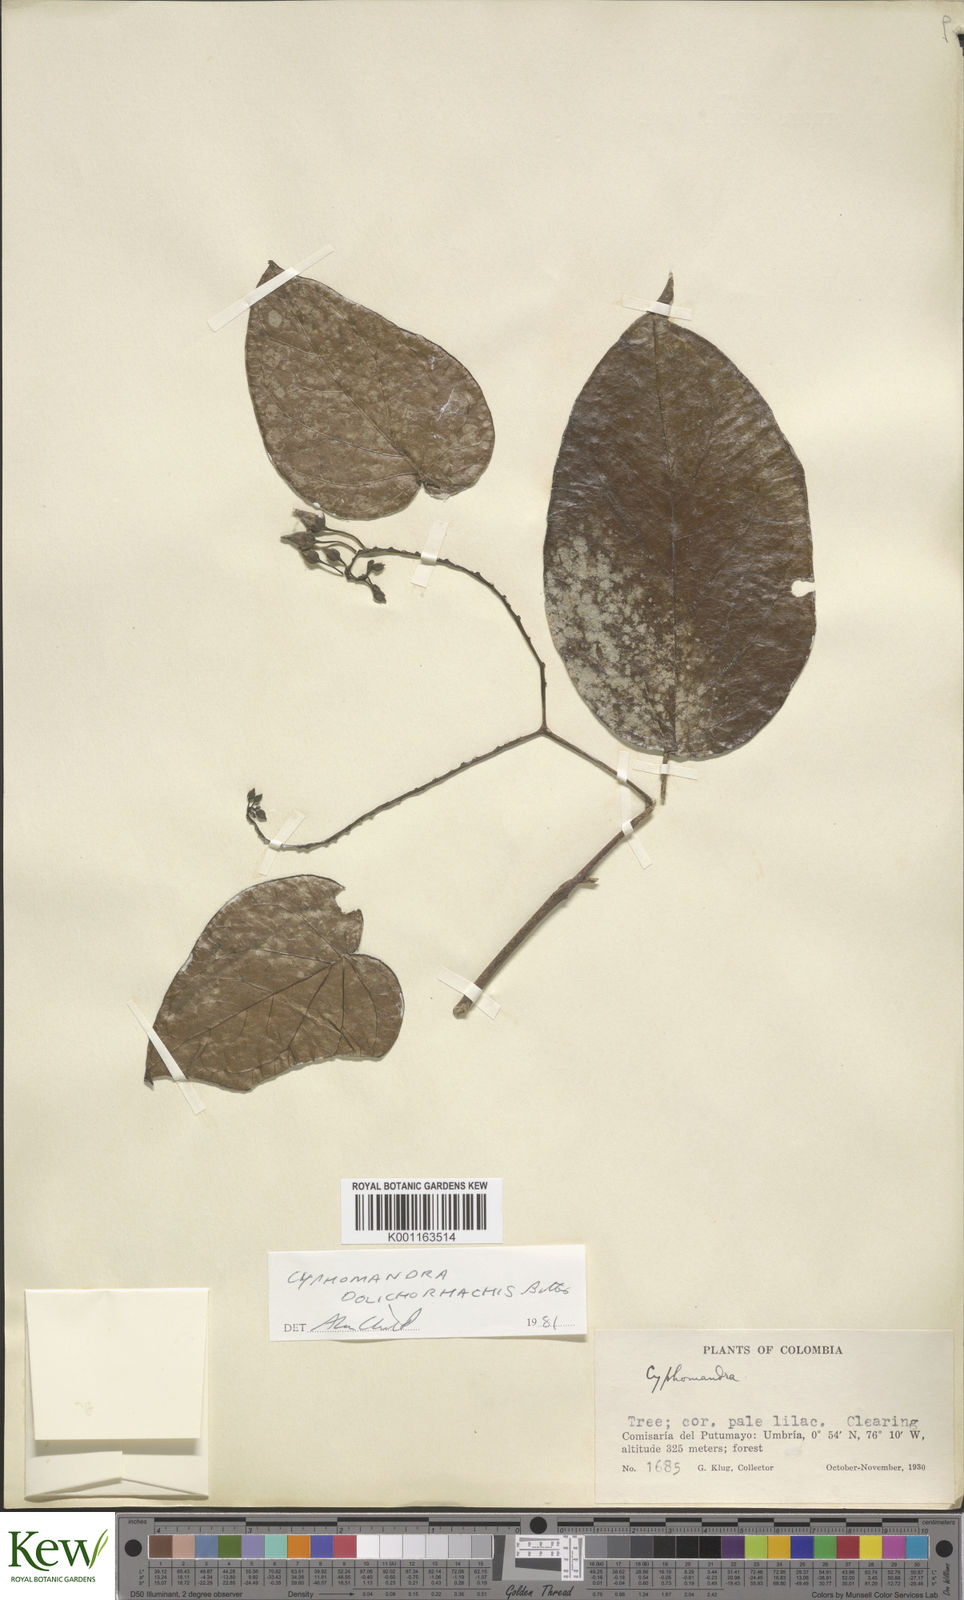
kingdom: Plantae
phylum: Tracheophyta
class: Magnoliopsida
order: Solanales
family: Solanaceae
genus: Solanum
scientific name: Solanum splendens
